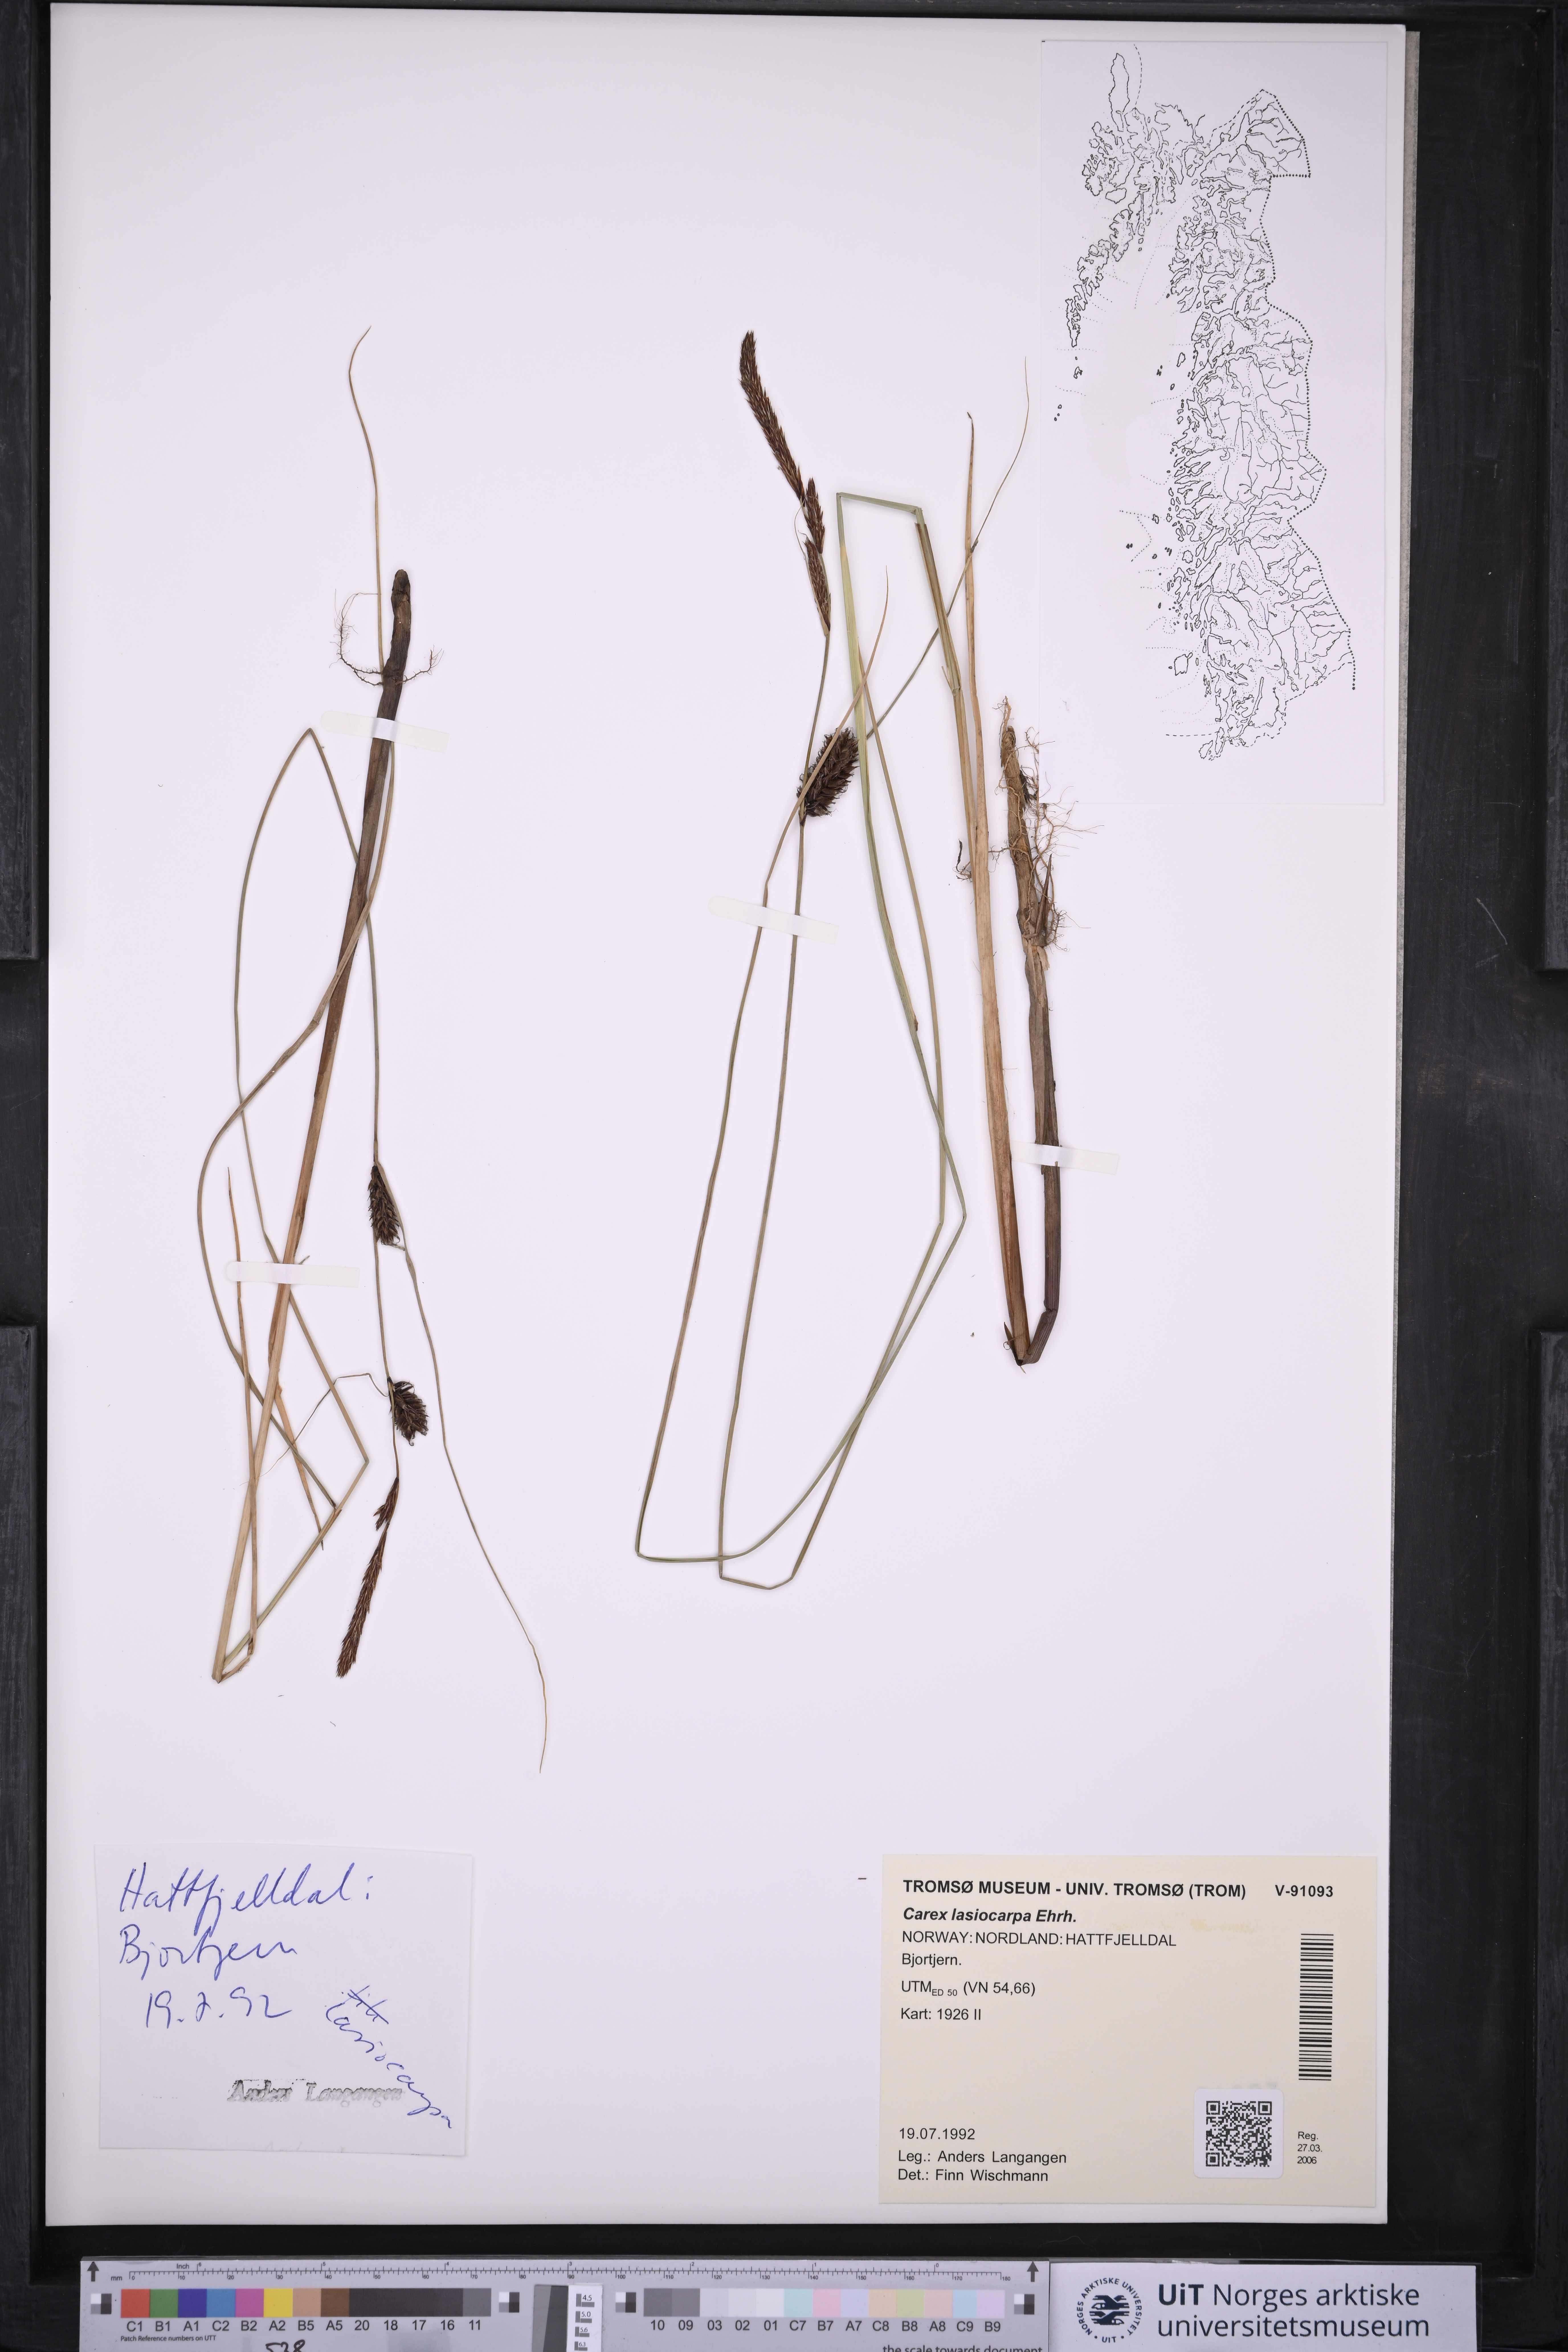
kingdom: Plantae
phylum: Tracheophyta
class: Liliopsida
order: Poales
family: Cyperaceae
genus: Carex
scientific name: Carex lasiocarpa
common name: Slender sedge
